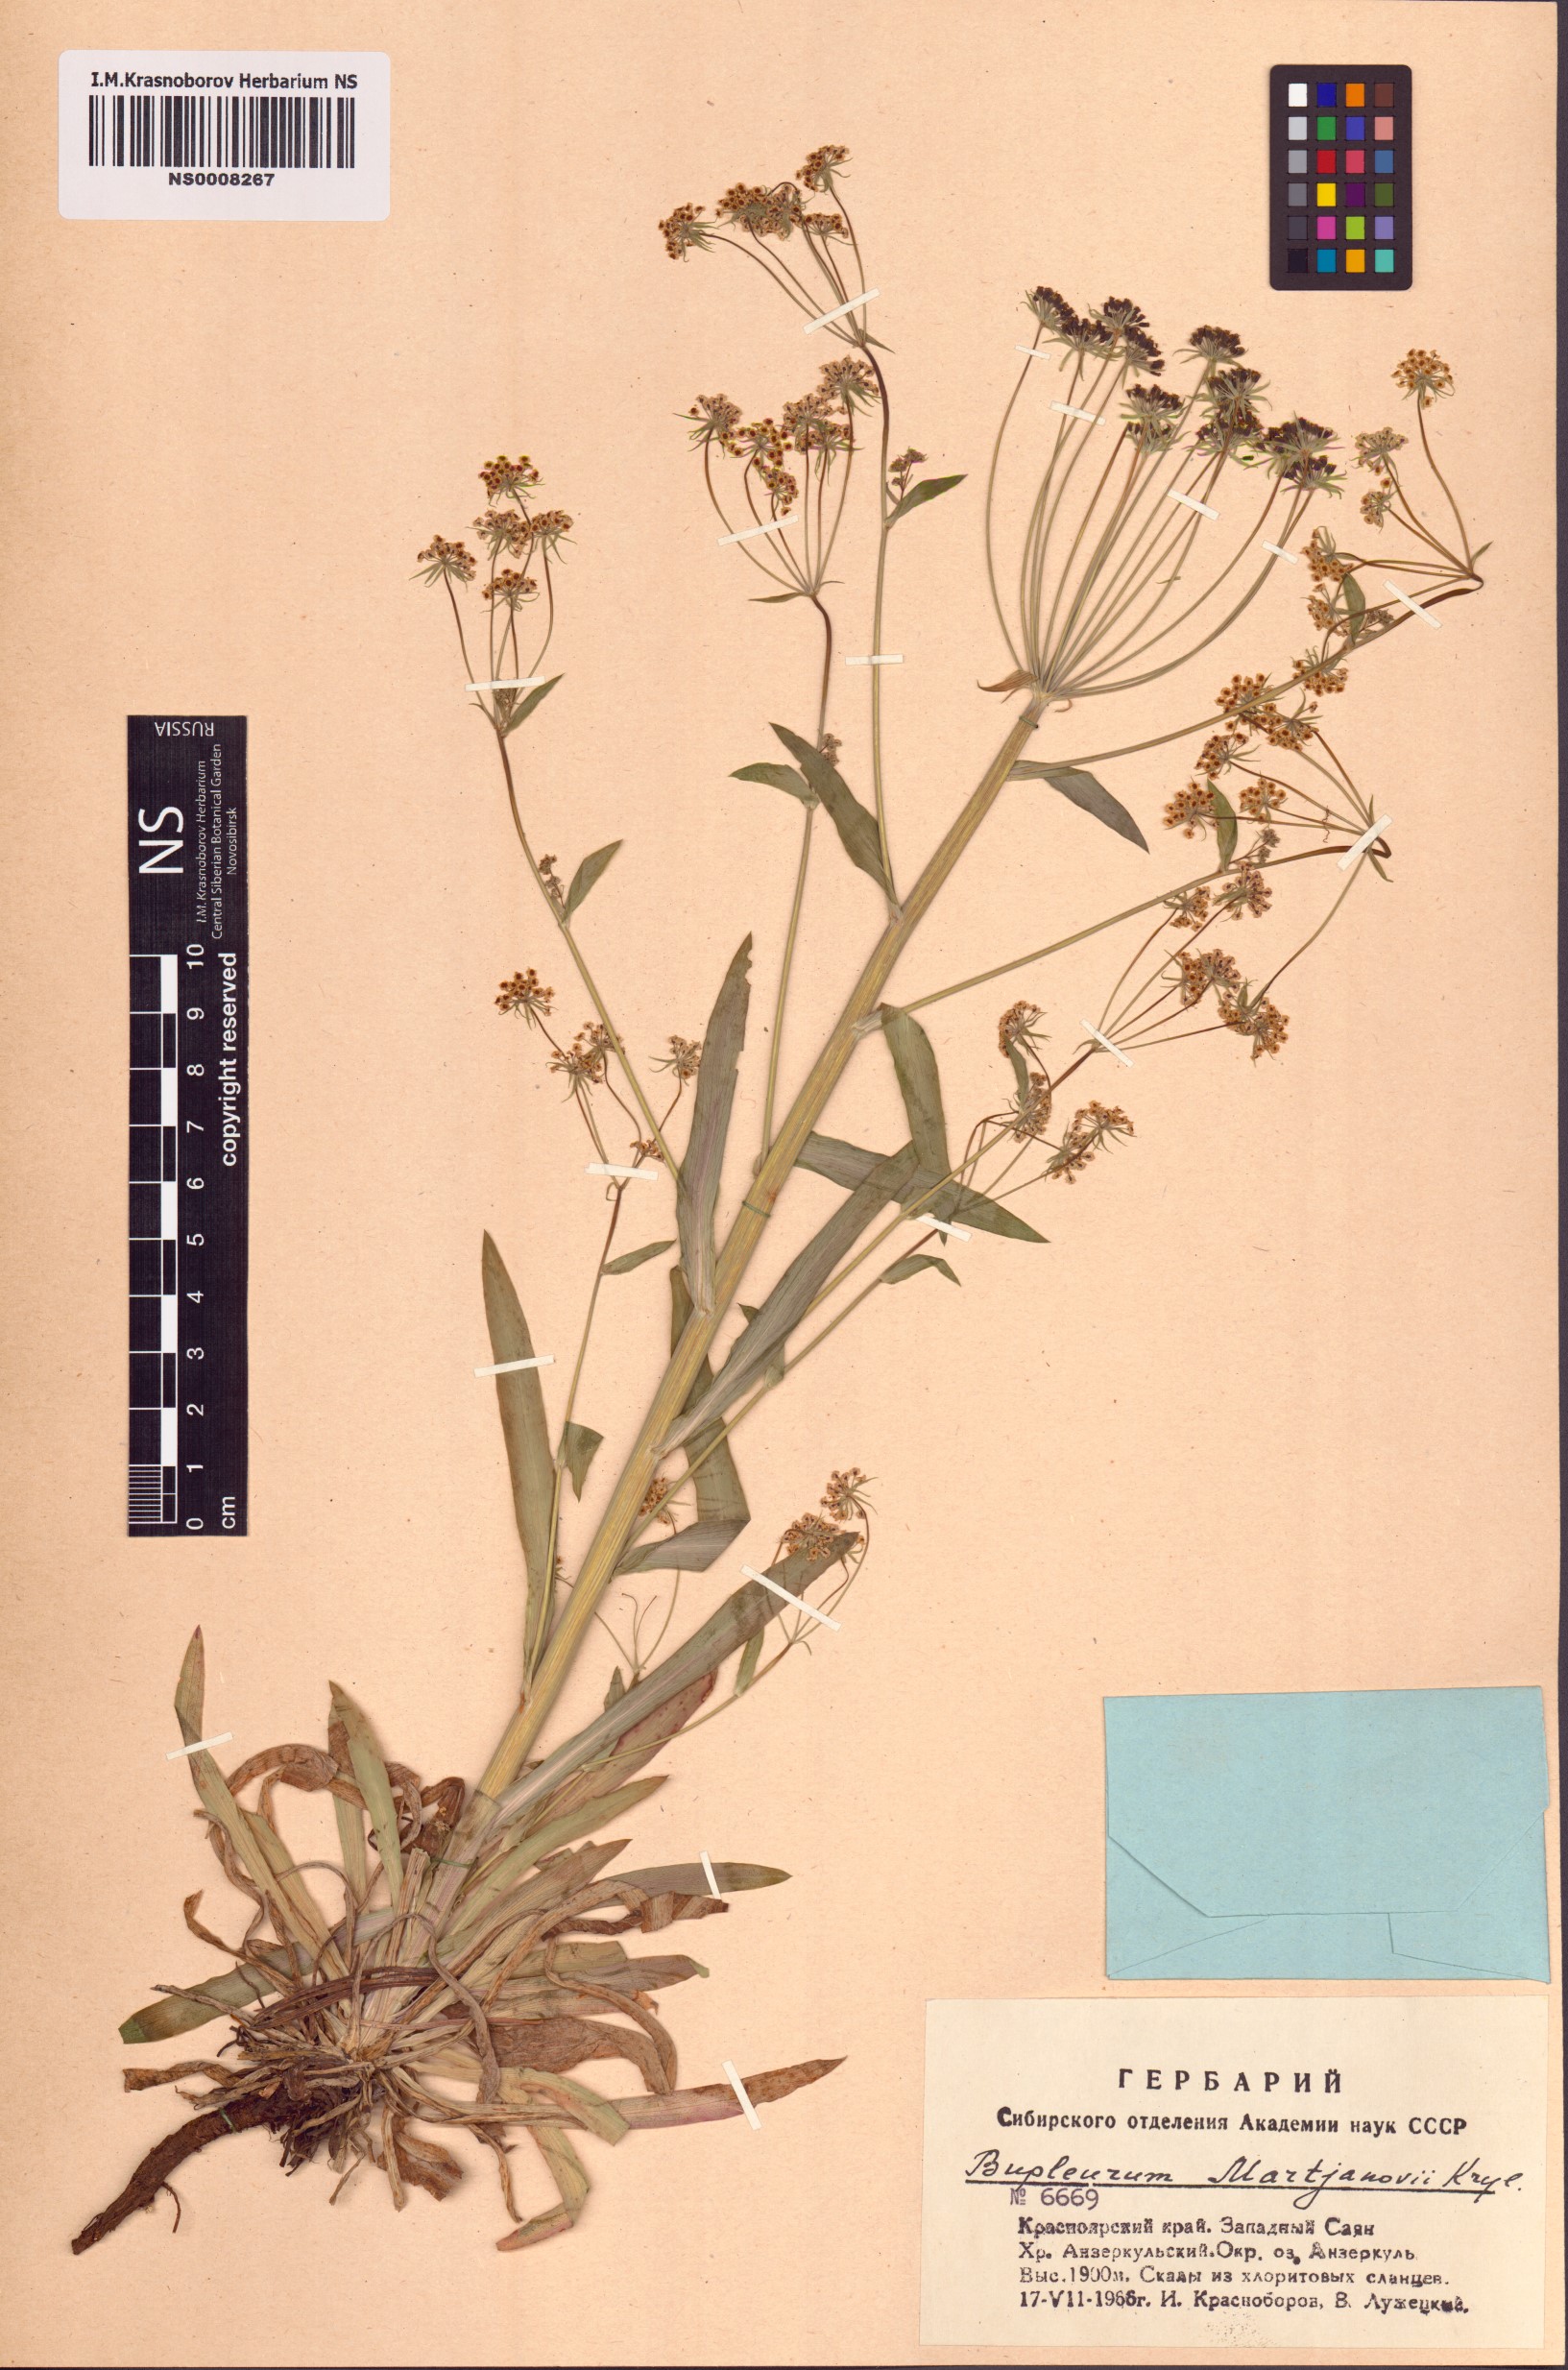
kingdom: Plantae
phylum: Tracheophyta
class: Magnoliopsida
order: Apiales
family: Apiaceae
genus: Bupleurum
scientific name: Bupleurum martjanovii
